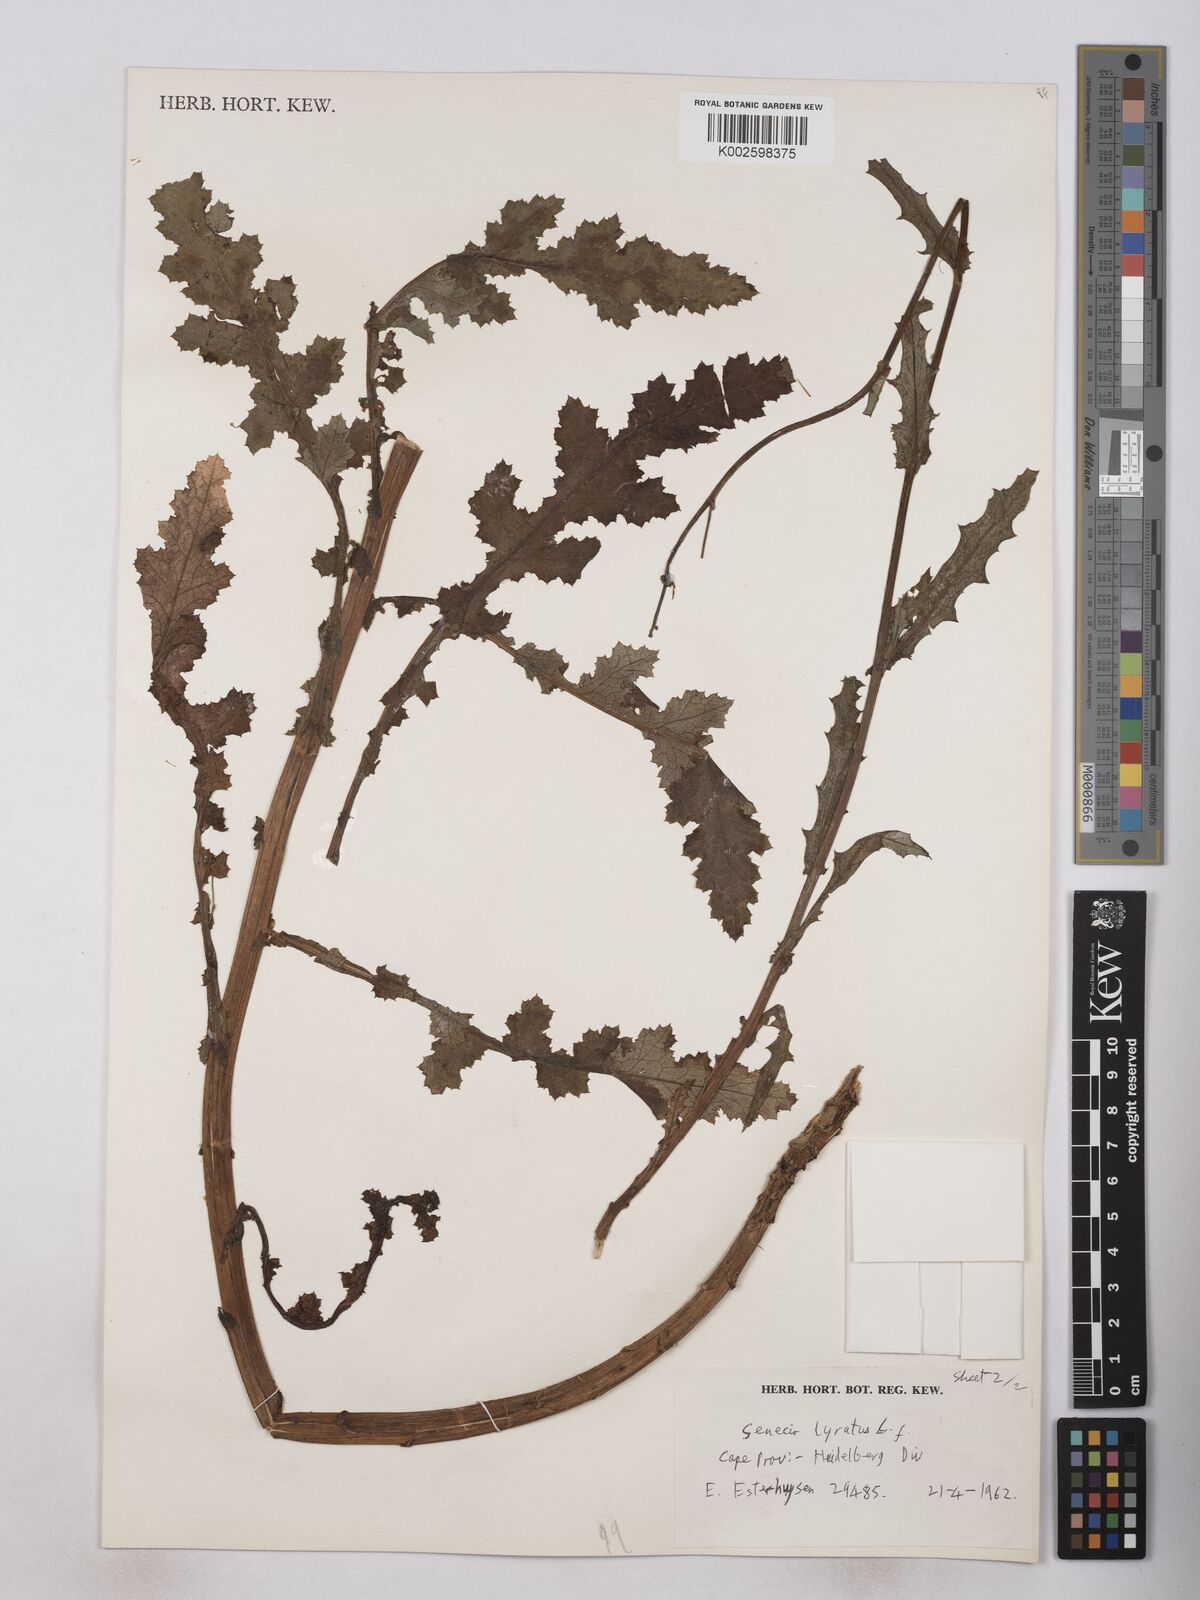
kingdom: Plantae
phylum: Tracheophyta
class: Magnoliopsida
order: Asterales
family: Asteraceae
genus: Senecio
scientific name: Senecio anapetes
